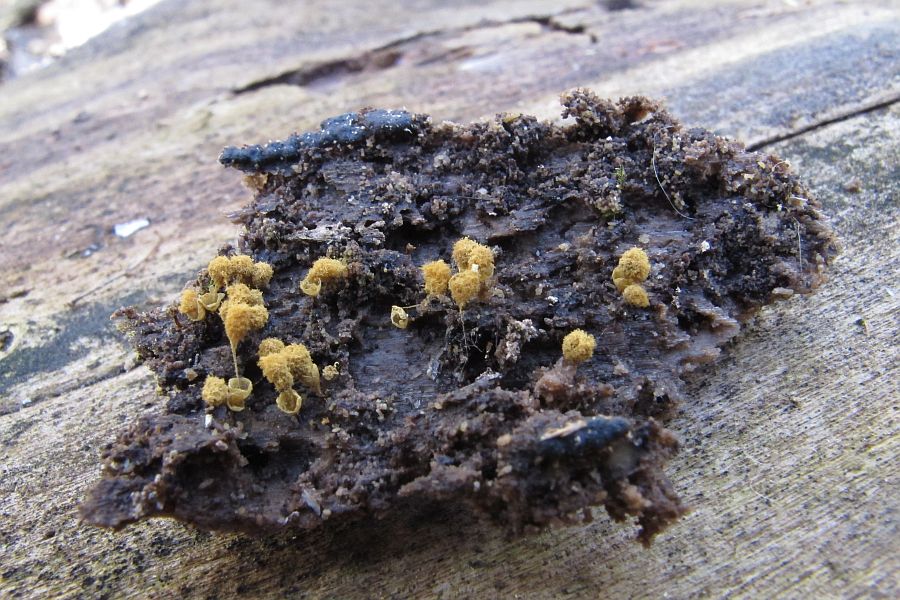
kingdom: Protozoa
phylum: Mycetozoa
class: Myxomycetes
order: Trichiales
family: Arcyriaceae
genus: Hemitrichia
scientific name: Hemitrichia clavata
